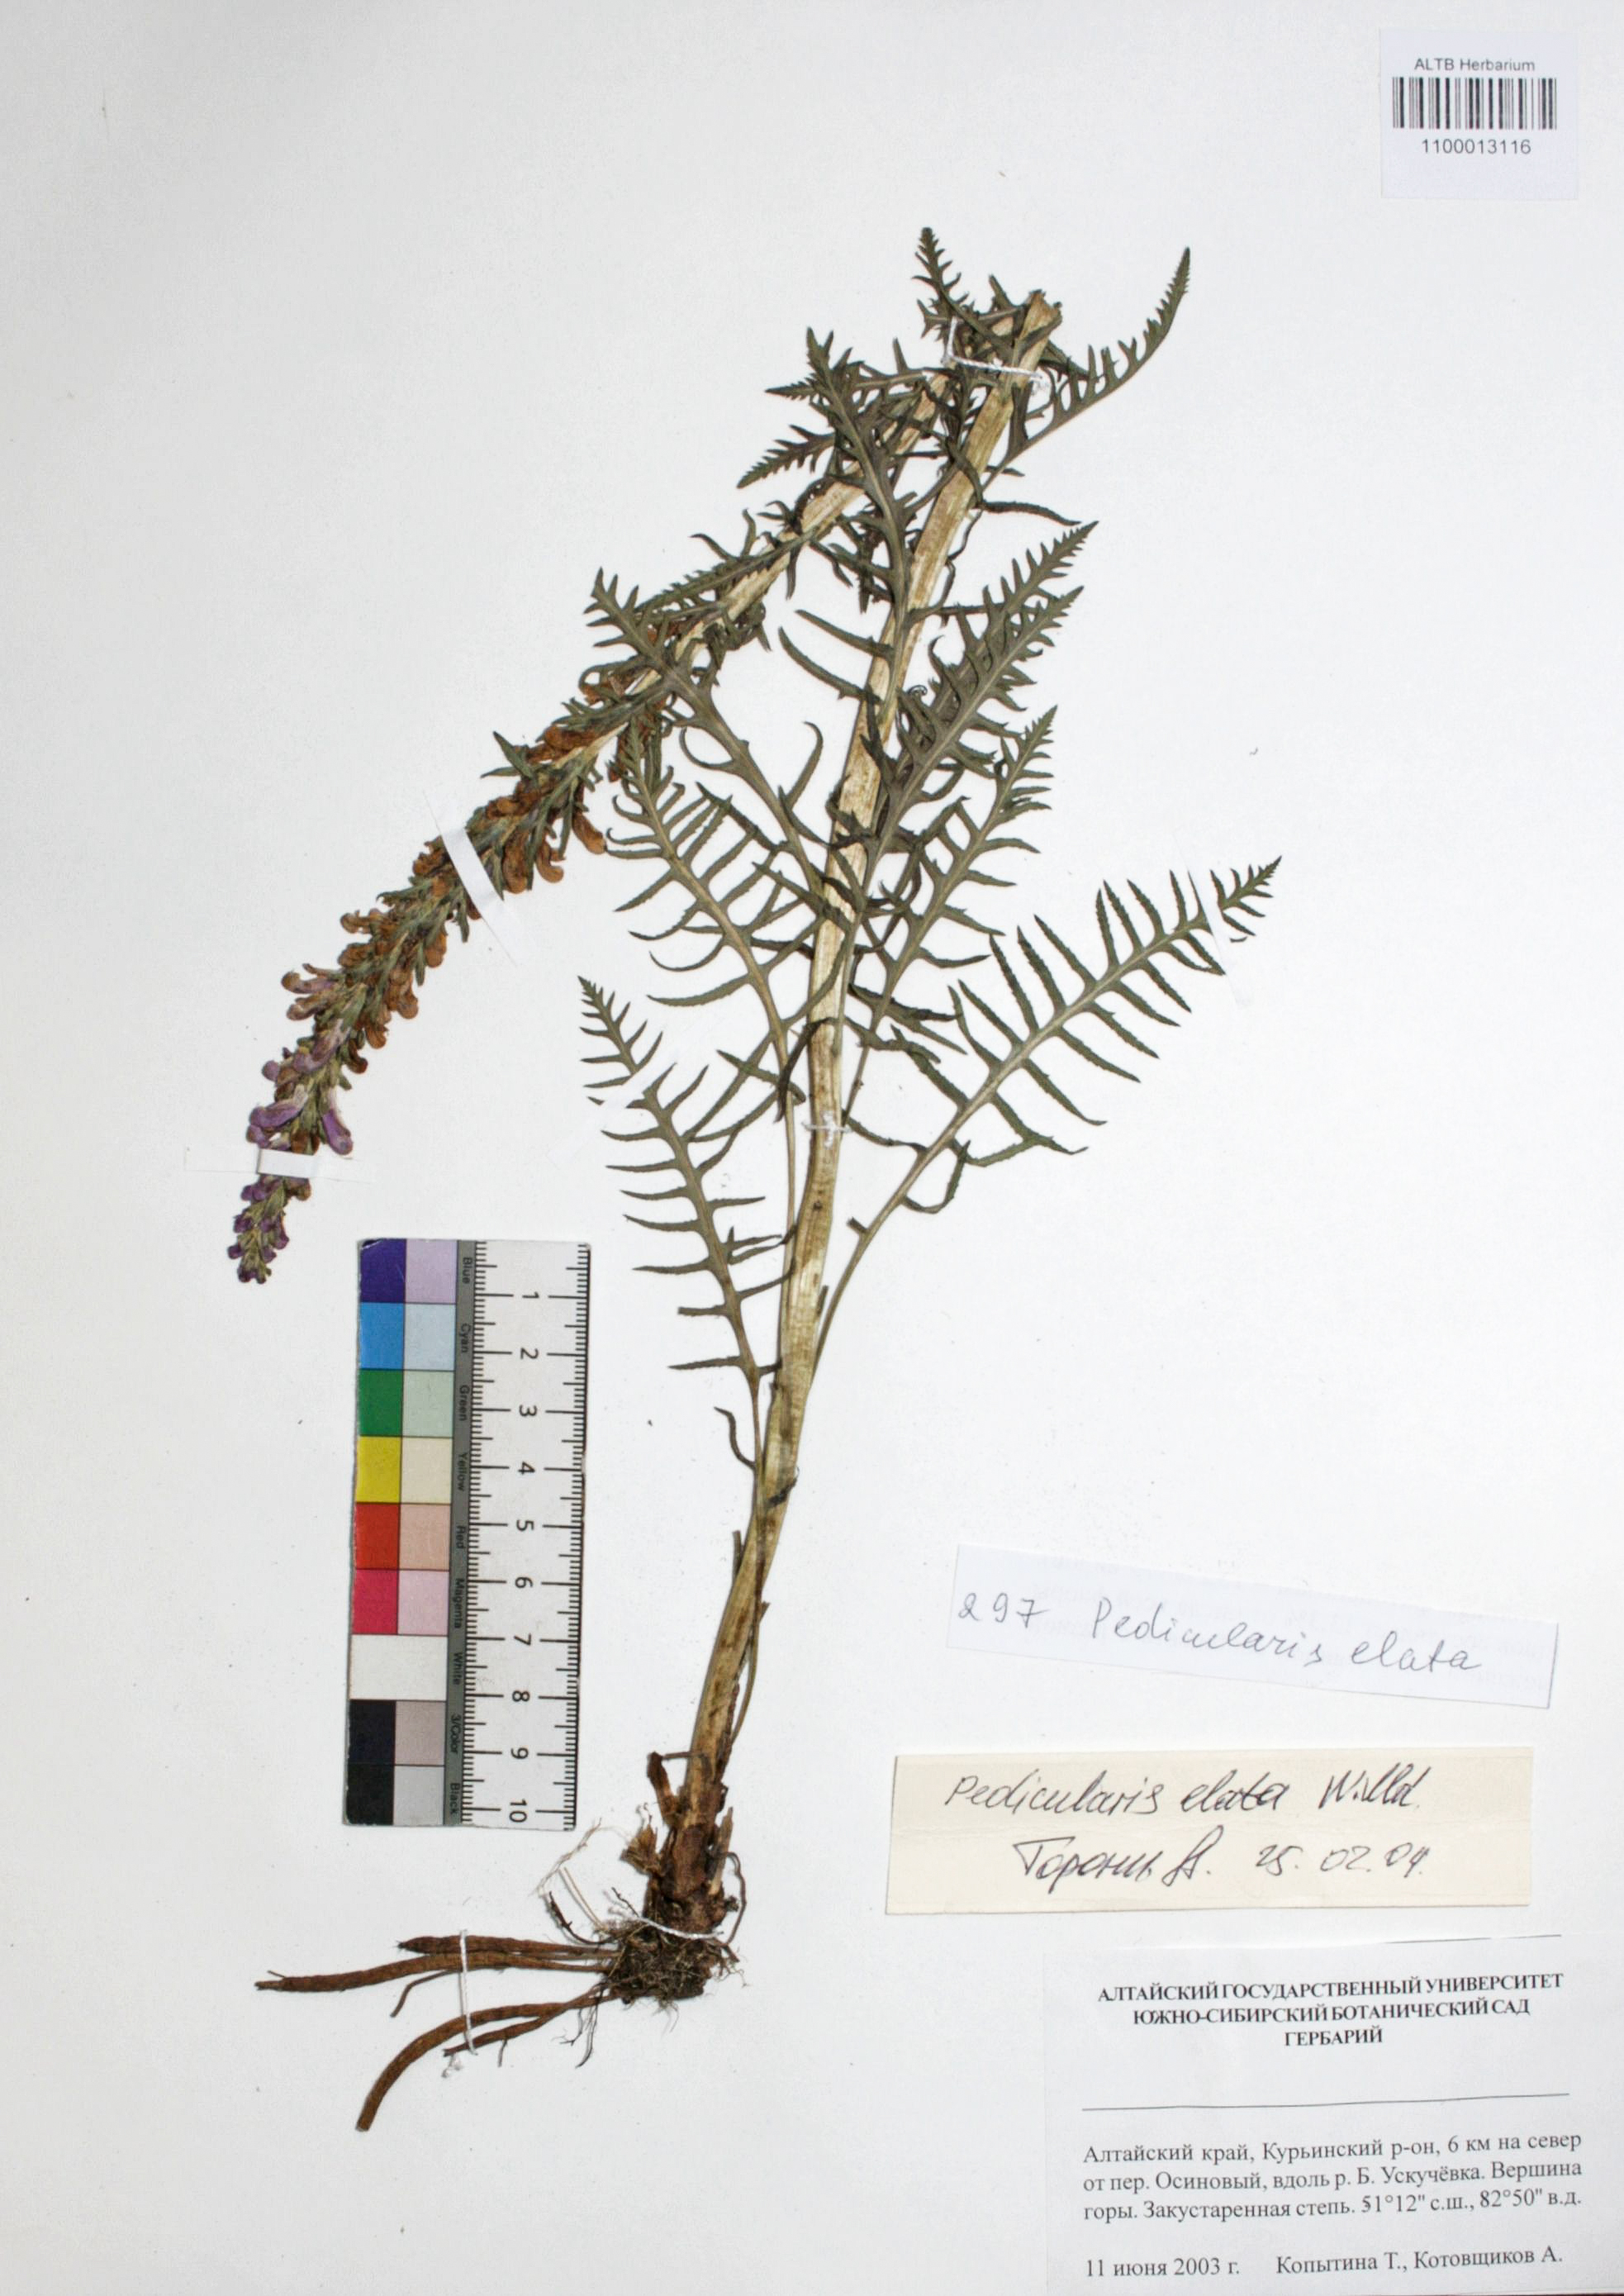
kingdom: Plantae
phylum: Tracheophyta
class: Magnoliopsida
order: Lamiales
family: Orobanchaceae
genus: Pedicularis
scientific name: Pedicularis elata
